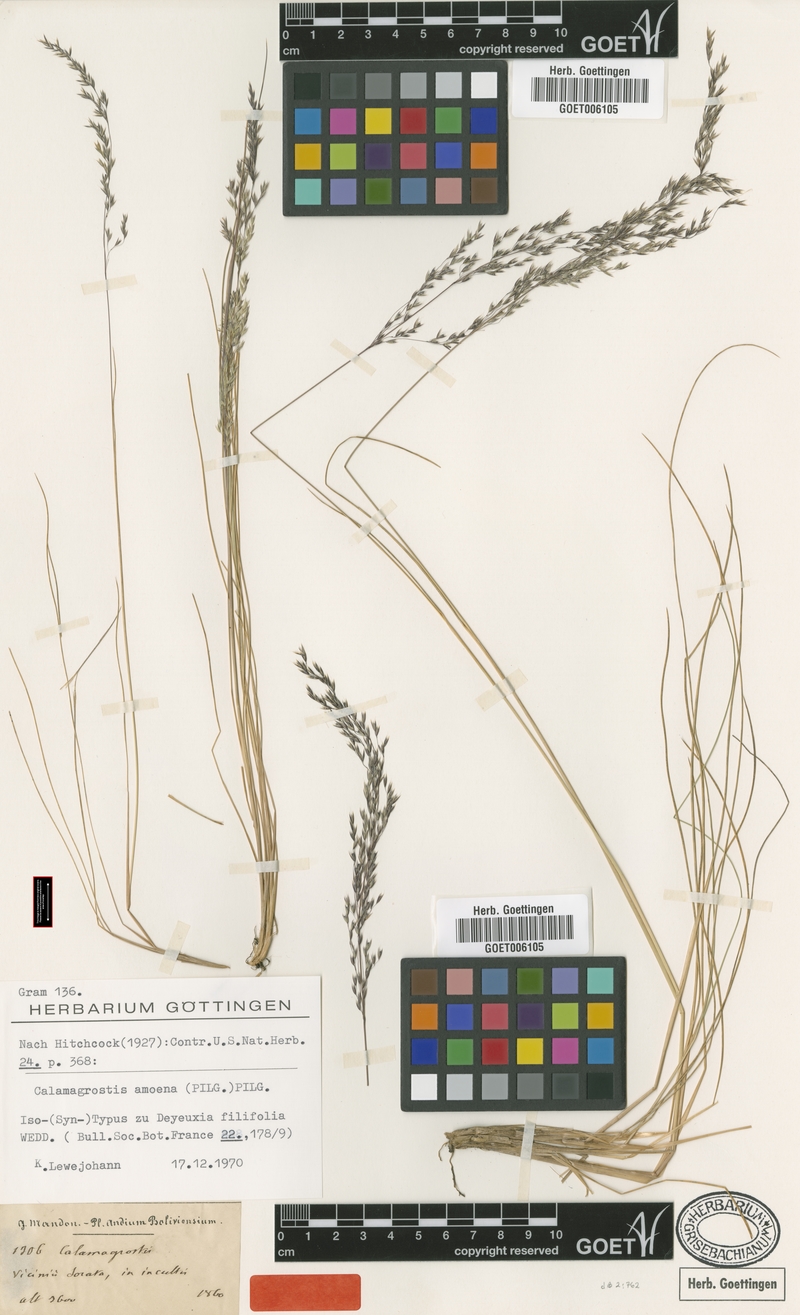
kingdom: Plantae
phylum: Tracheophyta
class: Liliopsida
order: Poales
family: Poaceae
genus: Cinnagrostis
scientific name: Cinnagrostis filifolia
